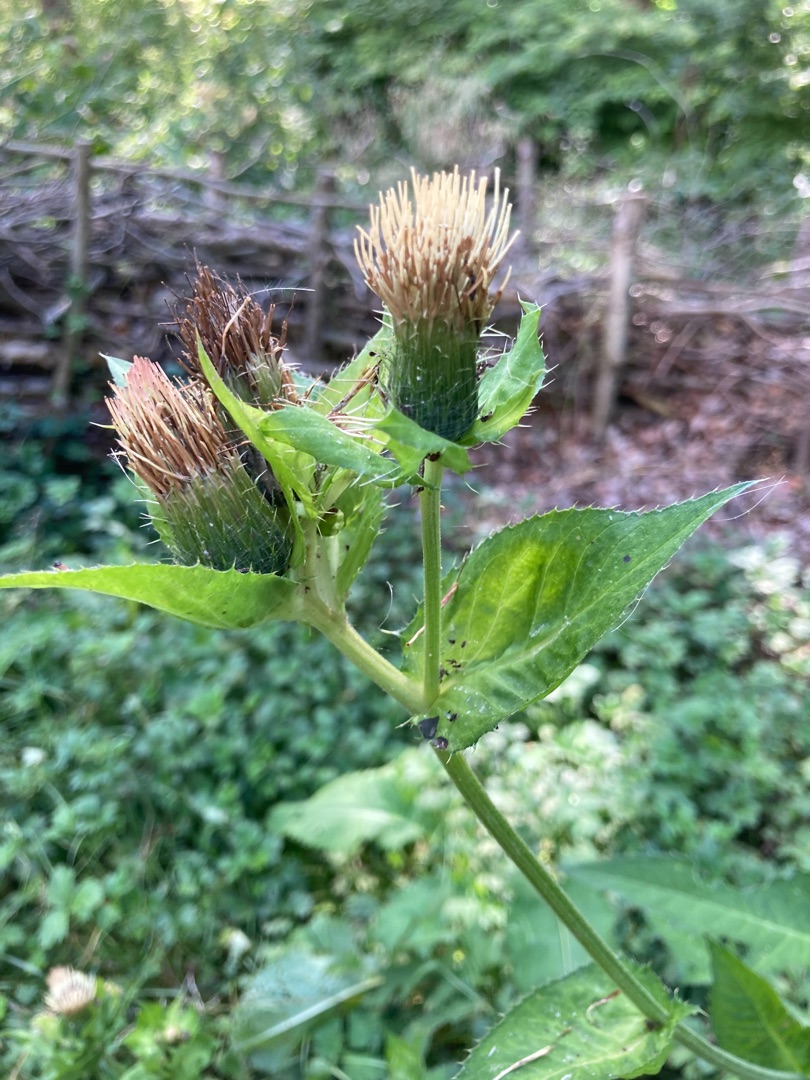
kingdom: Plantae
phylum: Tracheophyta
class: Magnoliopsida
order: Asterales
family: Asteraceae
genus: Cirsium
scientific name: Cirsium oleraceum
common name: Kål-tidsel
